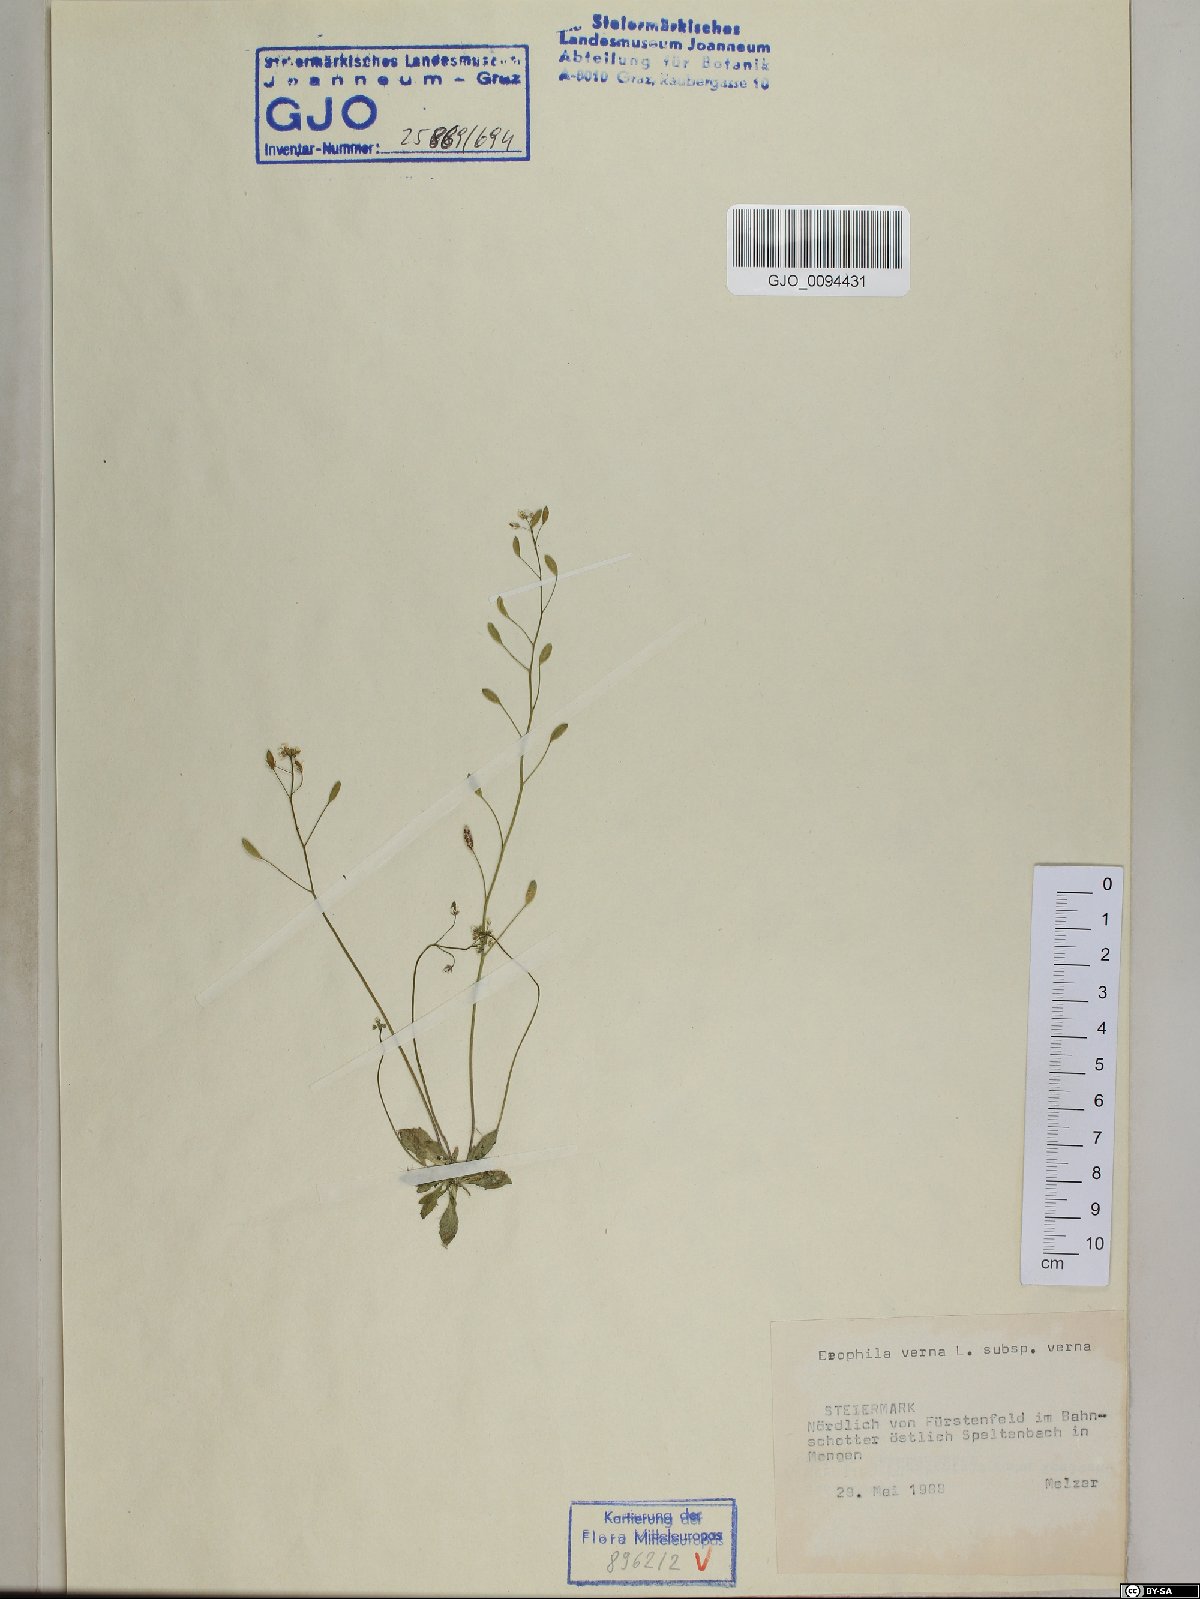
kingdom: Plantae
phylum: Tracheophyta
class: Magnoliopsida
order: Brassicales
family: Brassicaceae
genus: Draba
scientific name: Draba verna
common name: Spring draba
